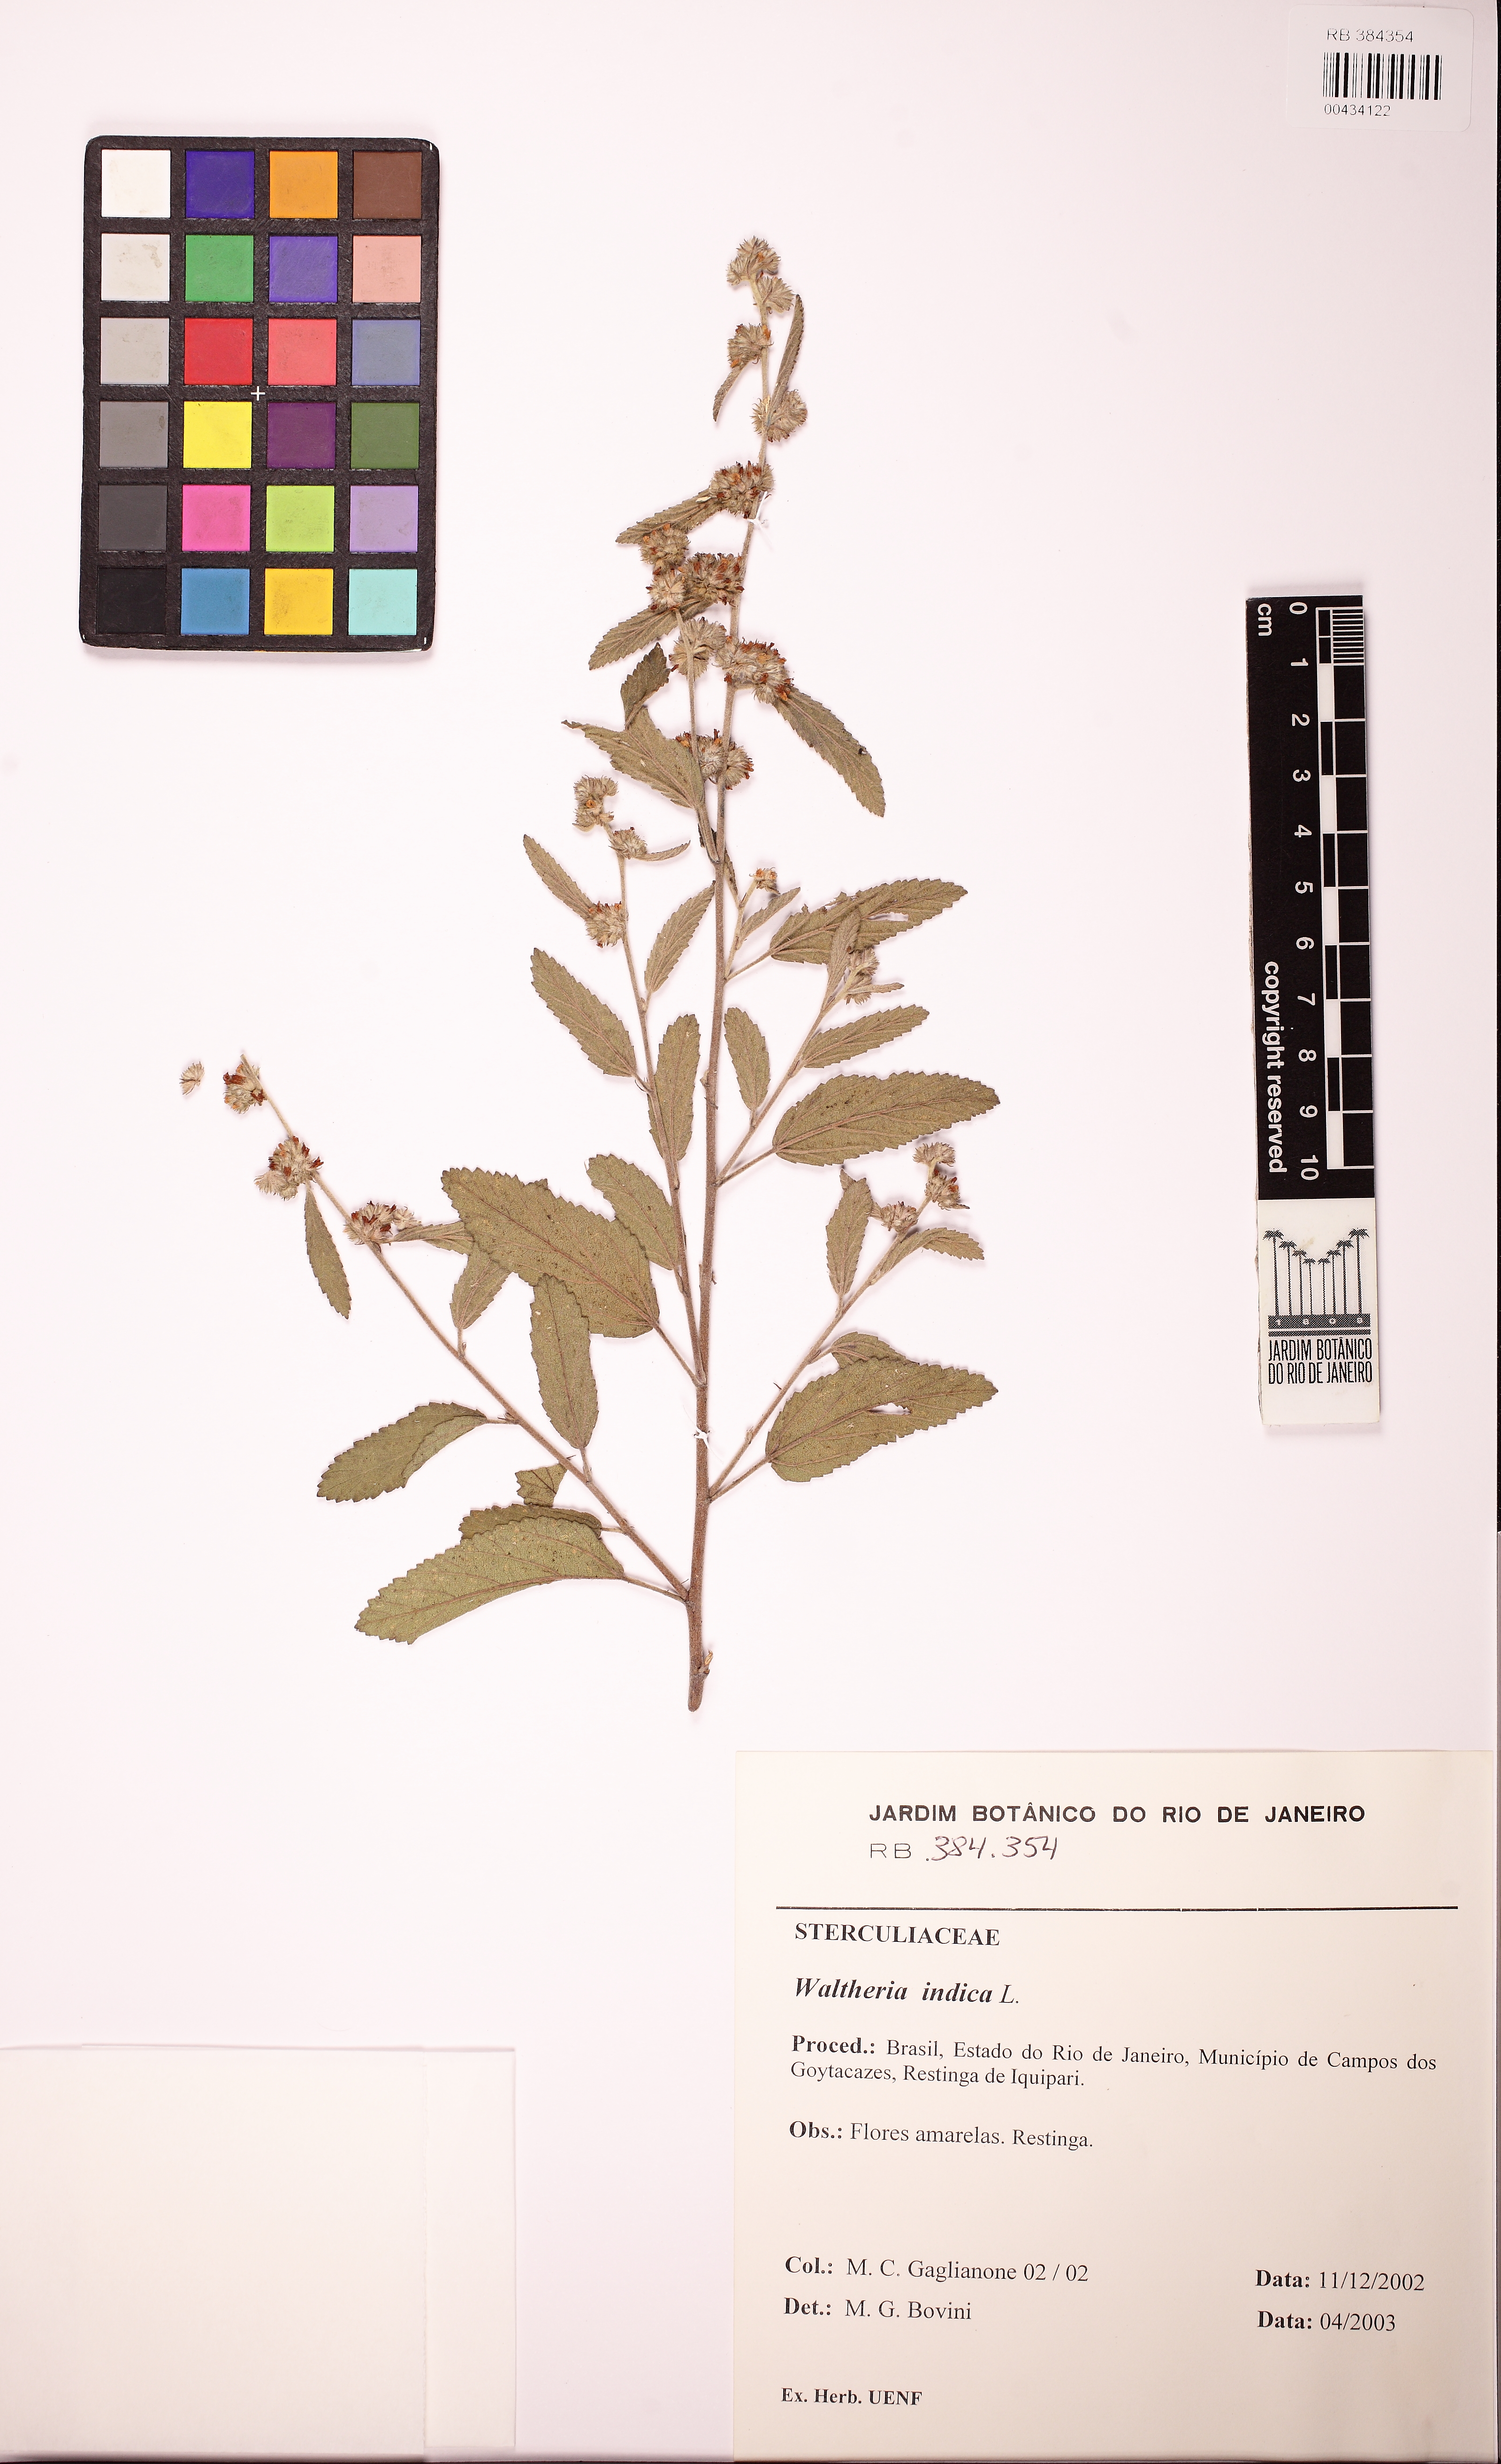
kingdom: Plantae
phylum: Tracheophyta
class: Magnoliopsida
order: Malvales
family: Malvaceae
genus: Waltheria
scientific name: Waltheria collina
